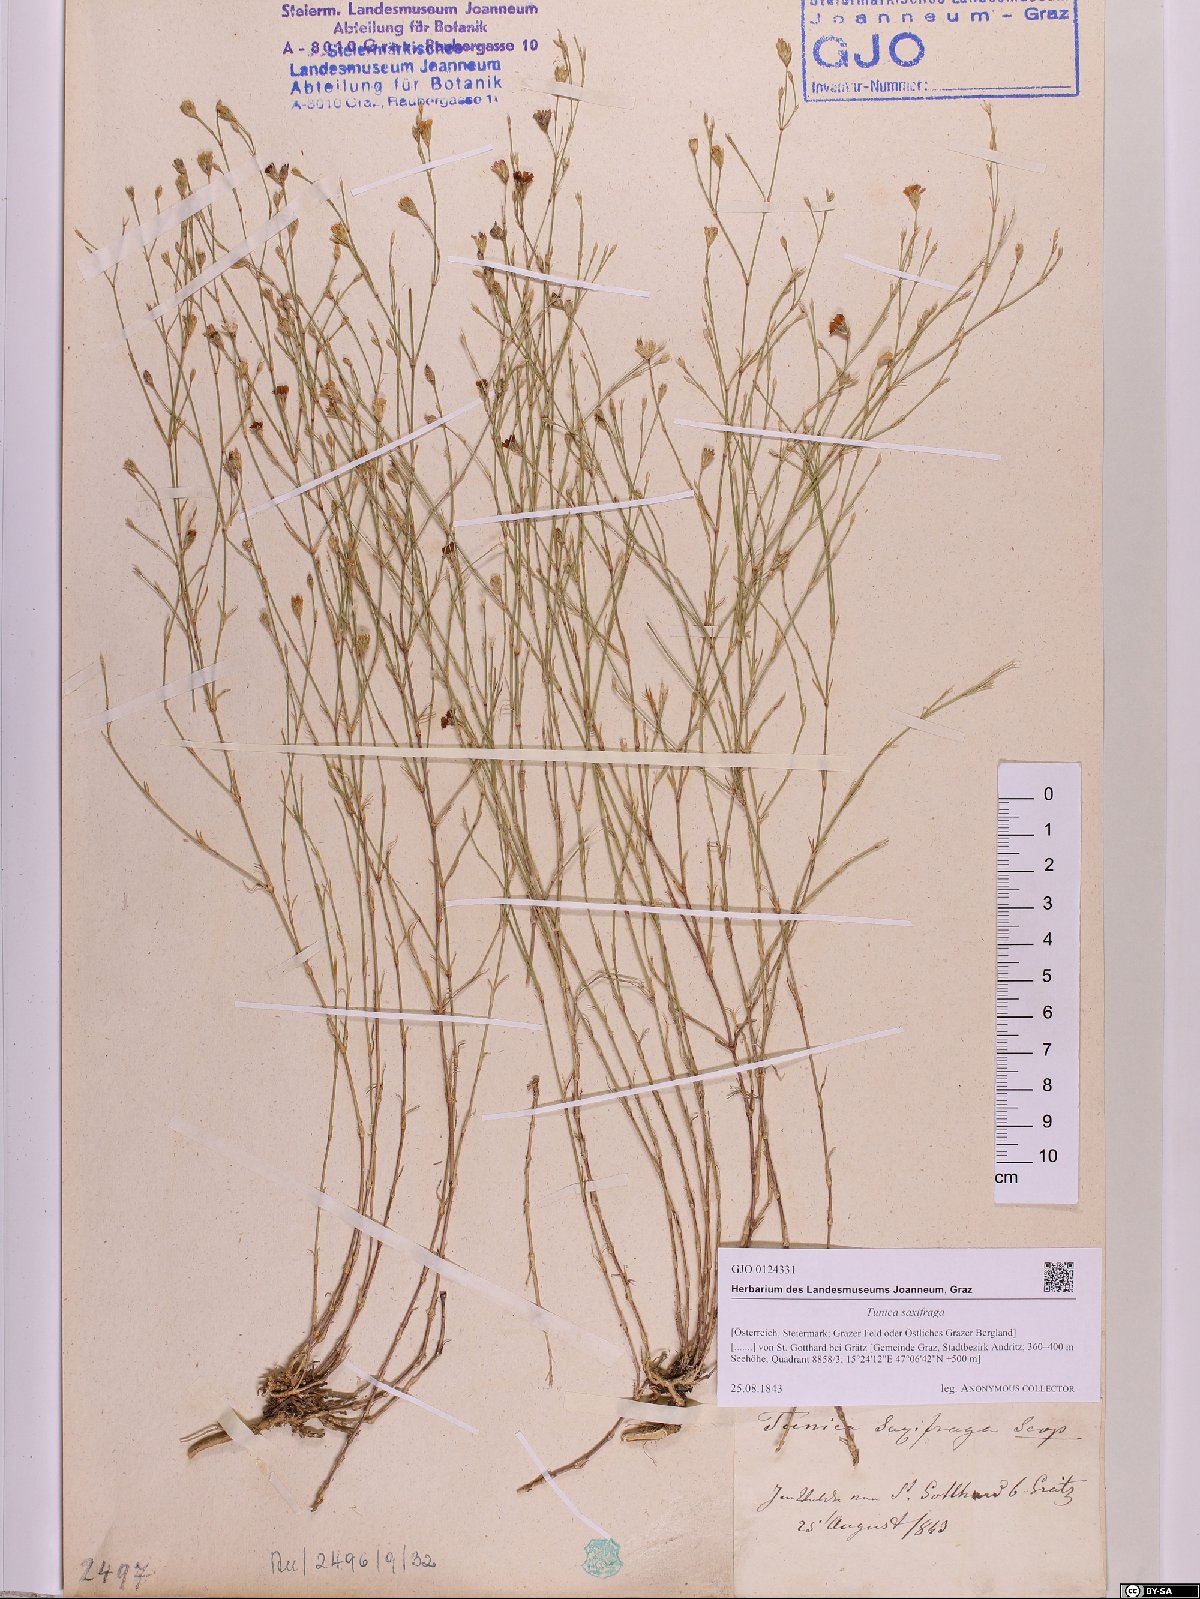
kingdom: Plantae
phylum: Tracheophyta
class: Magnoliopsida
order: Caryophyllales
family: Caryophyllaceae
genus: Petrorhagia
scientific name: Petrorhagia saxifraga
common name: Tunicflower
